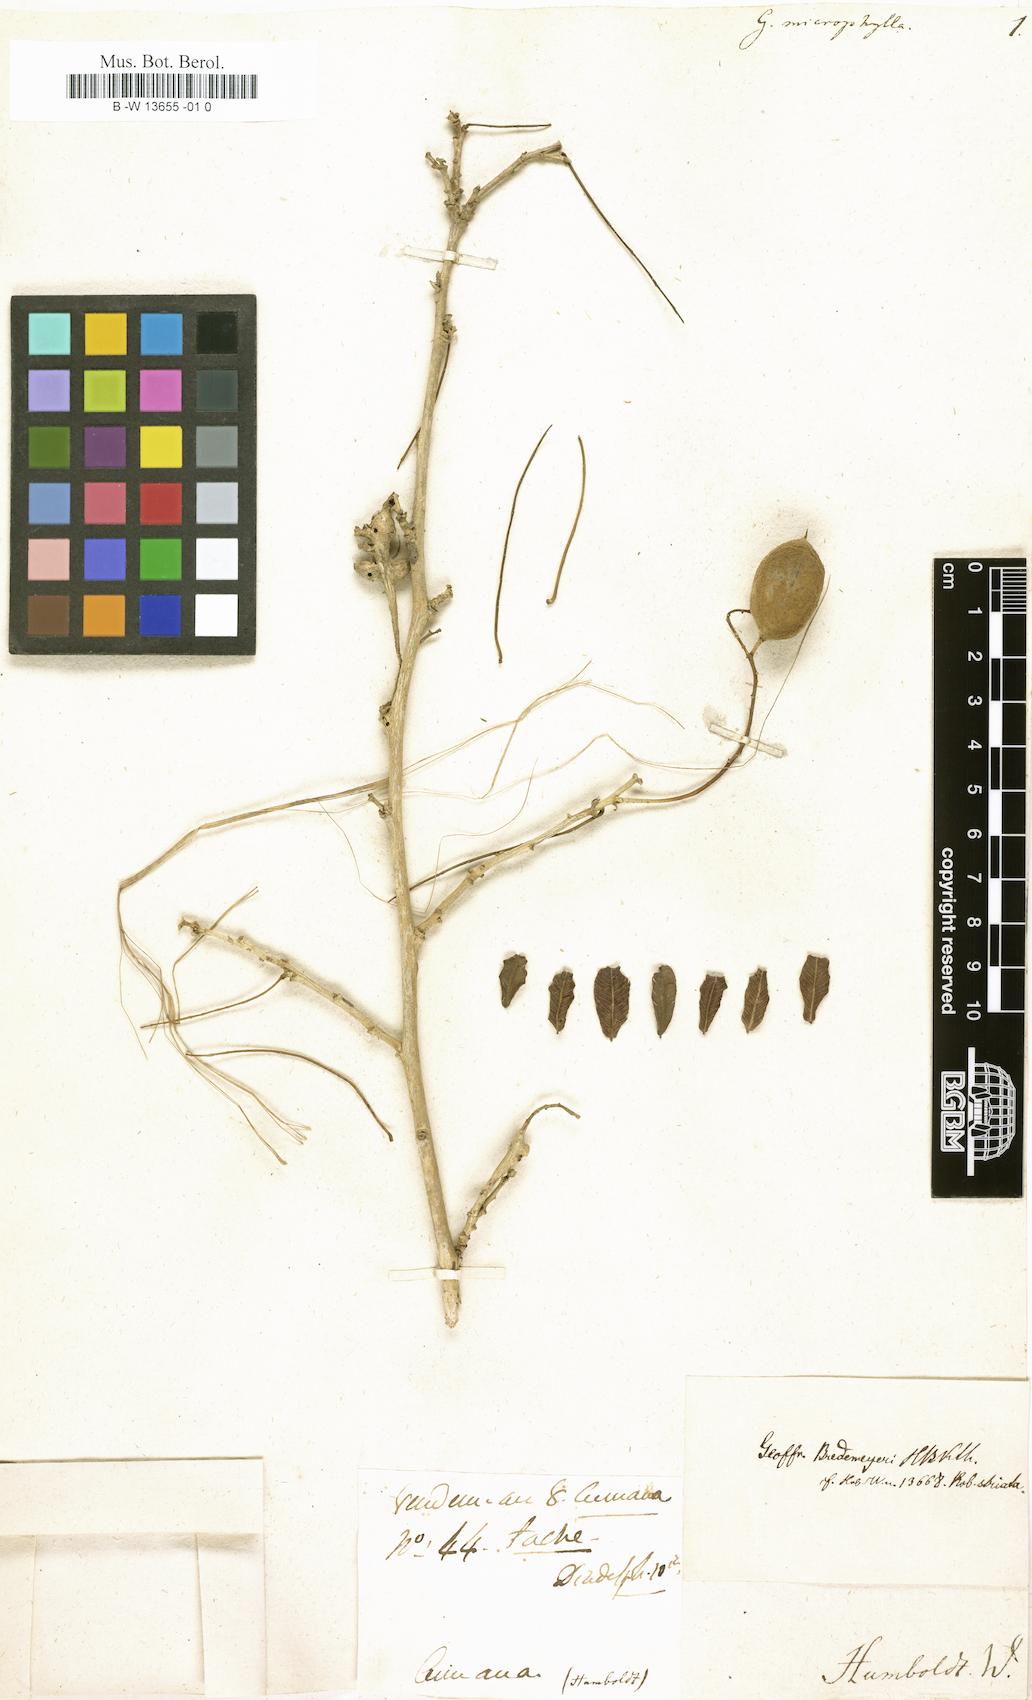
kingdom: Plantae
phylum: Tracheophyta
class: Magnoliopsida
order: Fabales
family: Fabaceae
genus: Geoffroea
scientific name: Geoffroea
